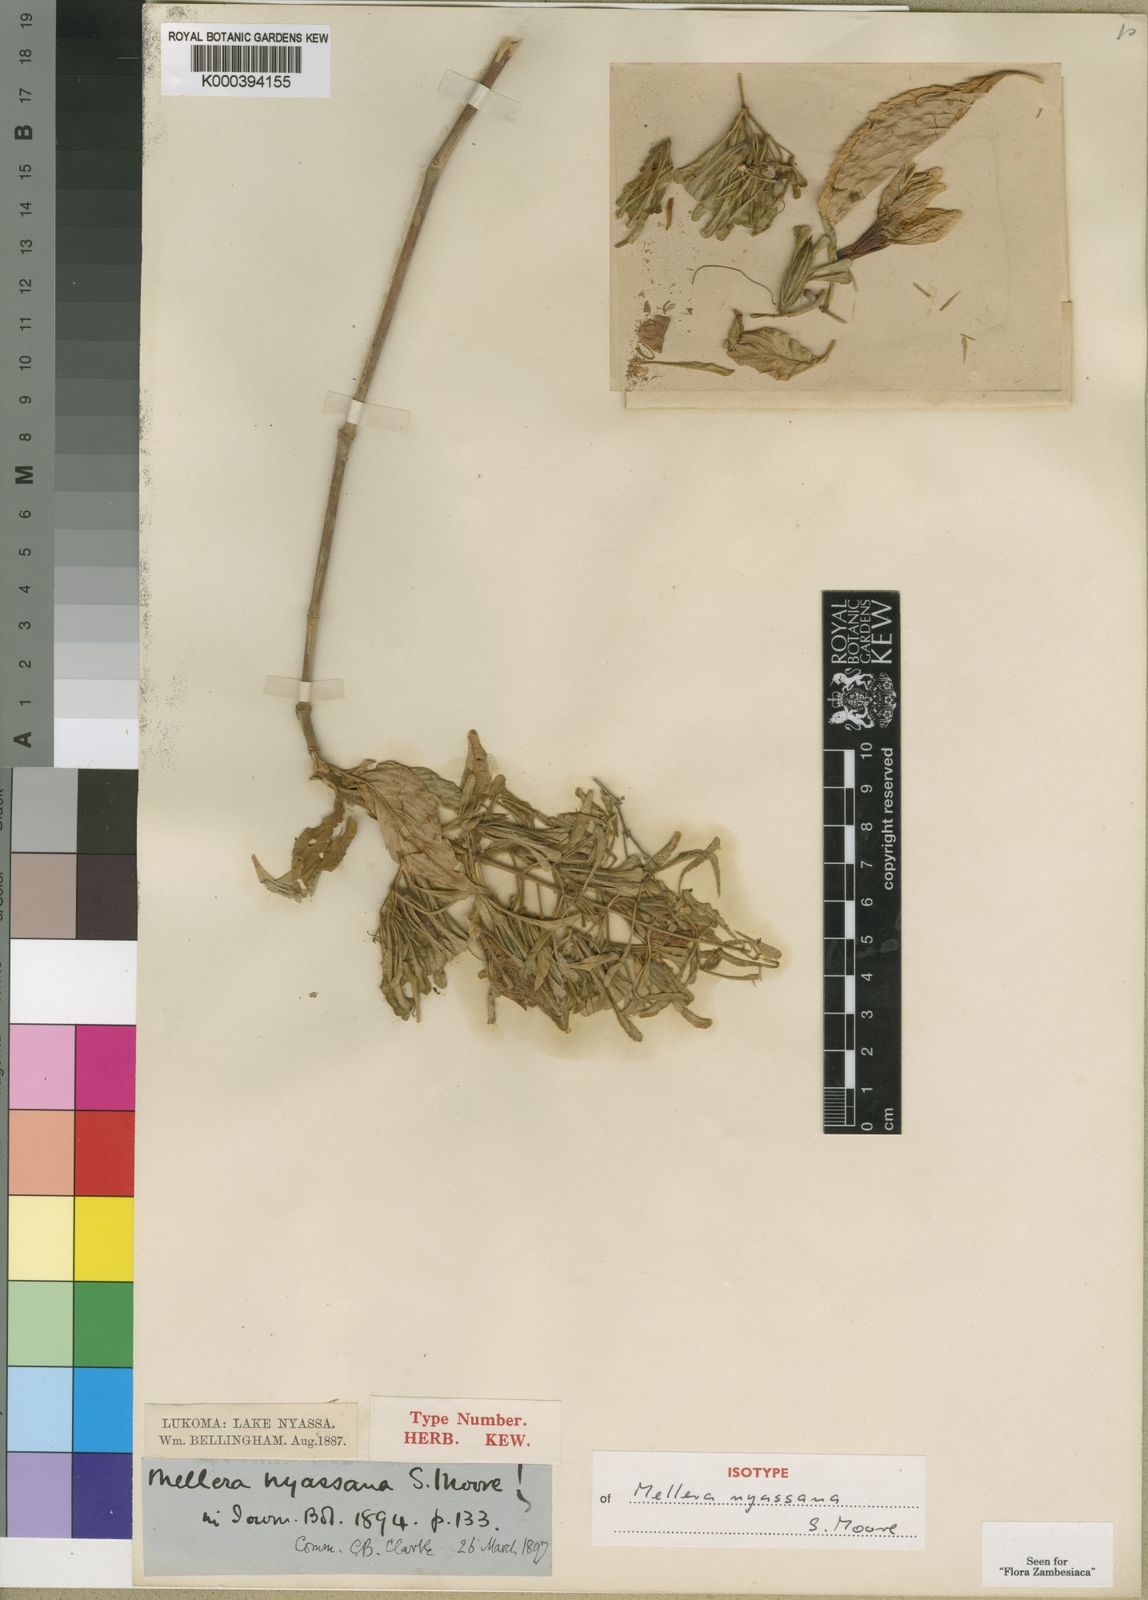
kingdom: Plantae
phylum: Tracheophyta
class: Magnoliopsida
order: Lamiales
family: Acanthaceae
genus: Mellera
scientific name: Mellera nyassana
